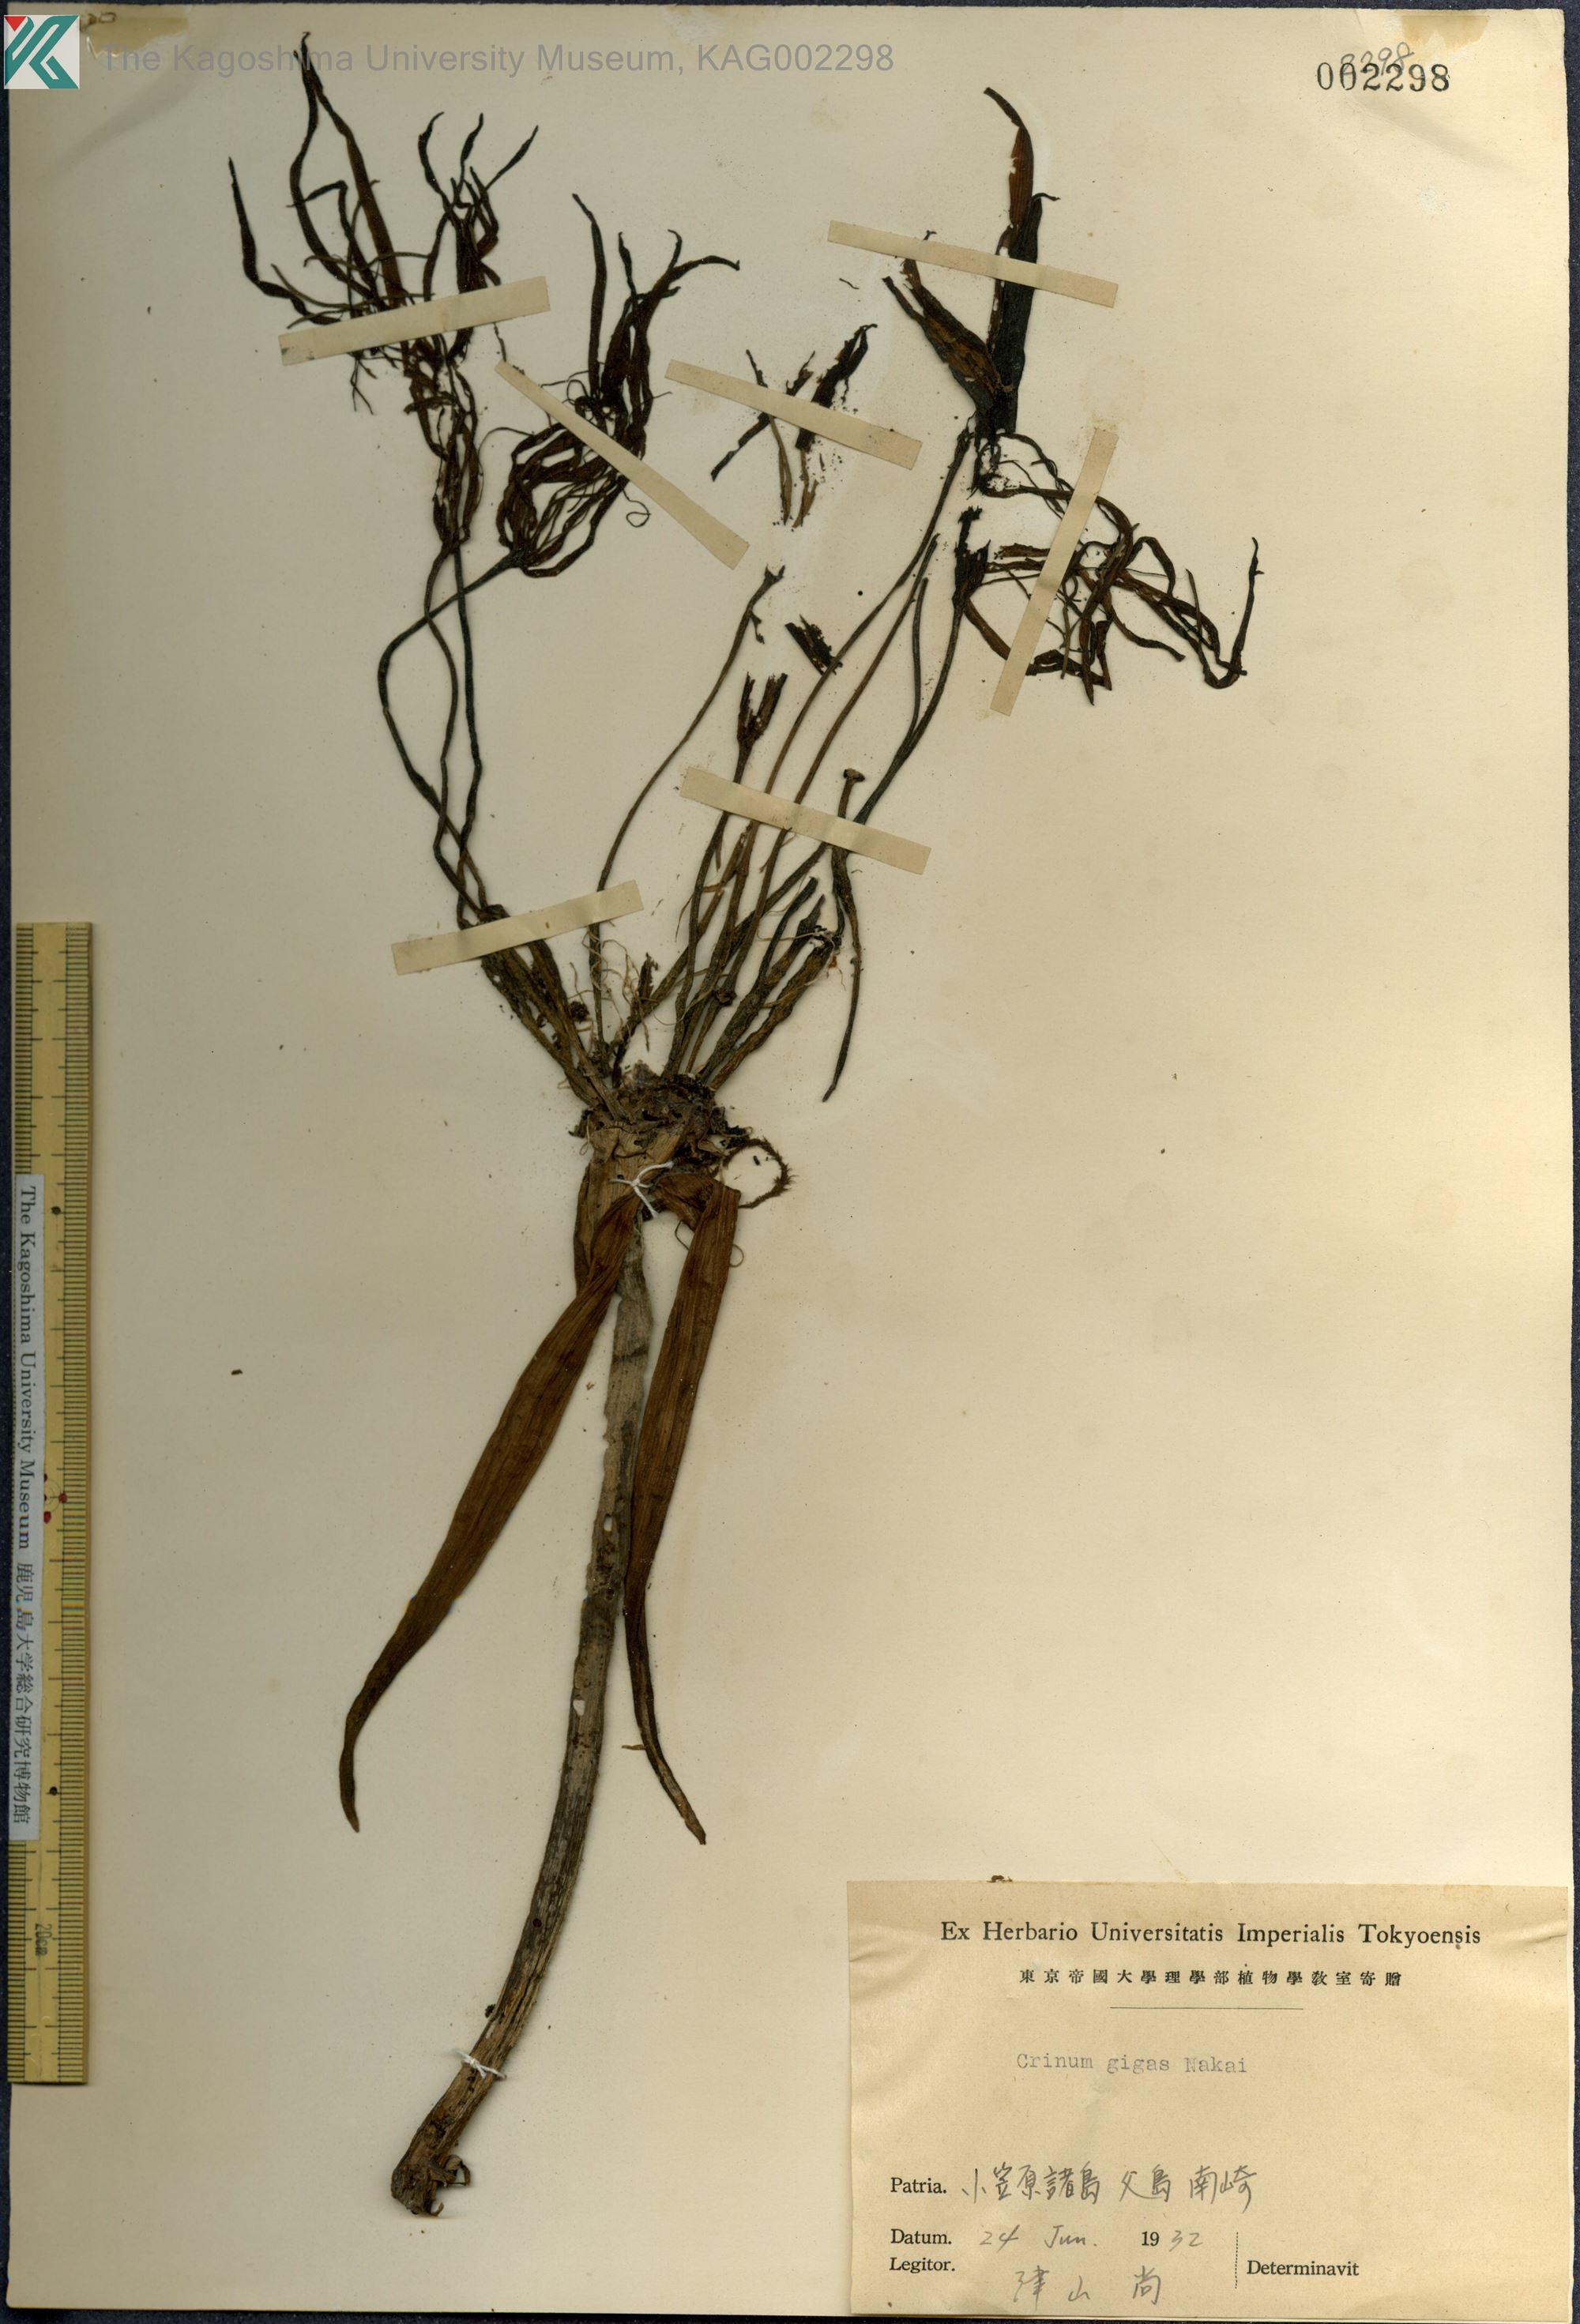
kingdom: Plantae
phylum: Tracheophyta
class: Liliopsida
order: Asparagales
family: Amaryllidaceae
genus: Crinum
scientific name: Crinum gigas
